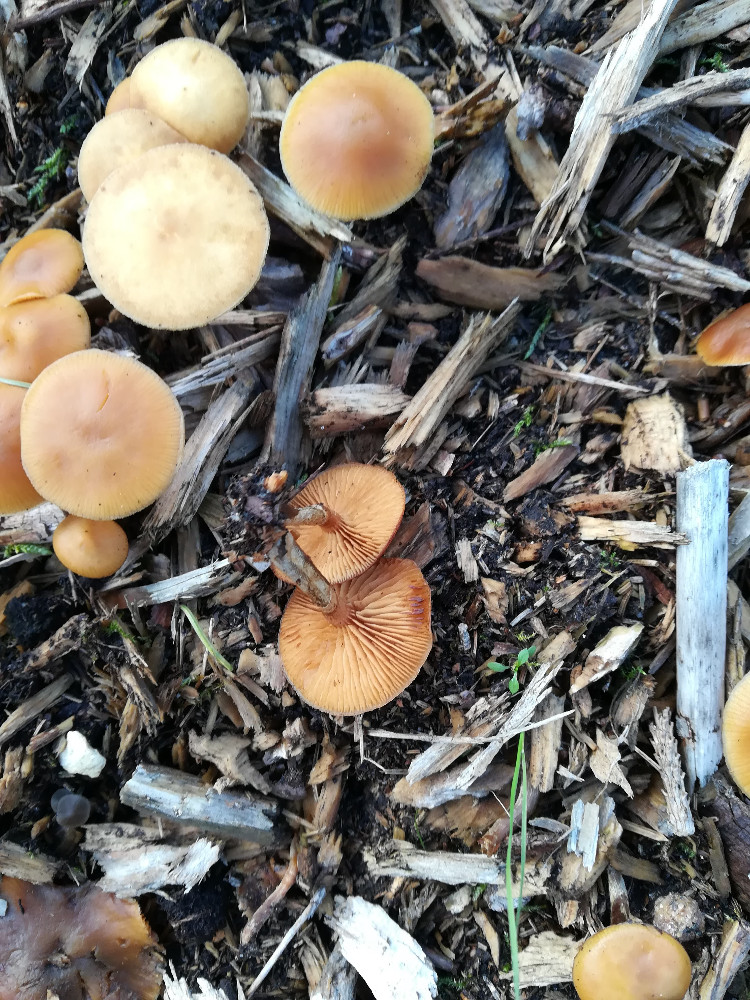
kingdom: Fungi
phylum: Basidiomycota
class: Agaricomycetes
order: Agaricales
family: Hymenogastraceae
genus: Galerina
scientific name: Galerina marginata
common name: randbæltet hjelmhat
